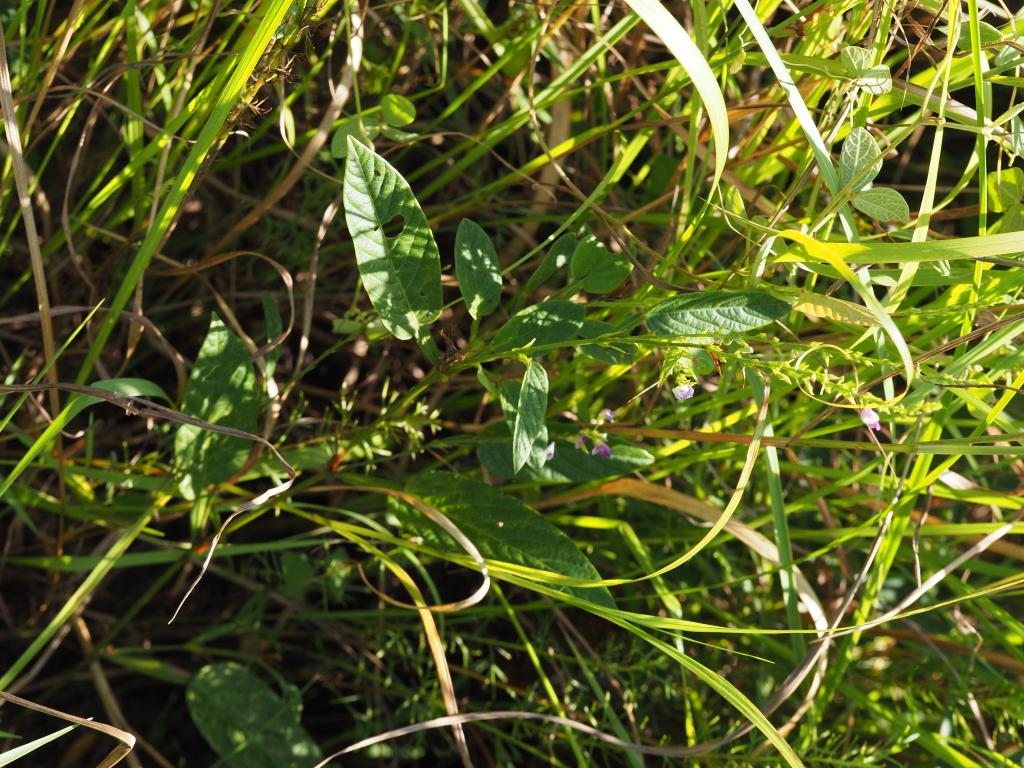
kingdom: Plantae
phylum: Tracheophyta
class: Magnoliopsida
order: Fabales
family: Fabaceae
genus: Tadehagi
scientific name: Tadehagi pseudotriquetrum
